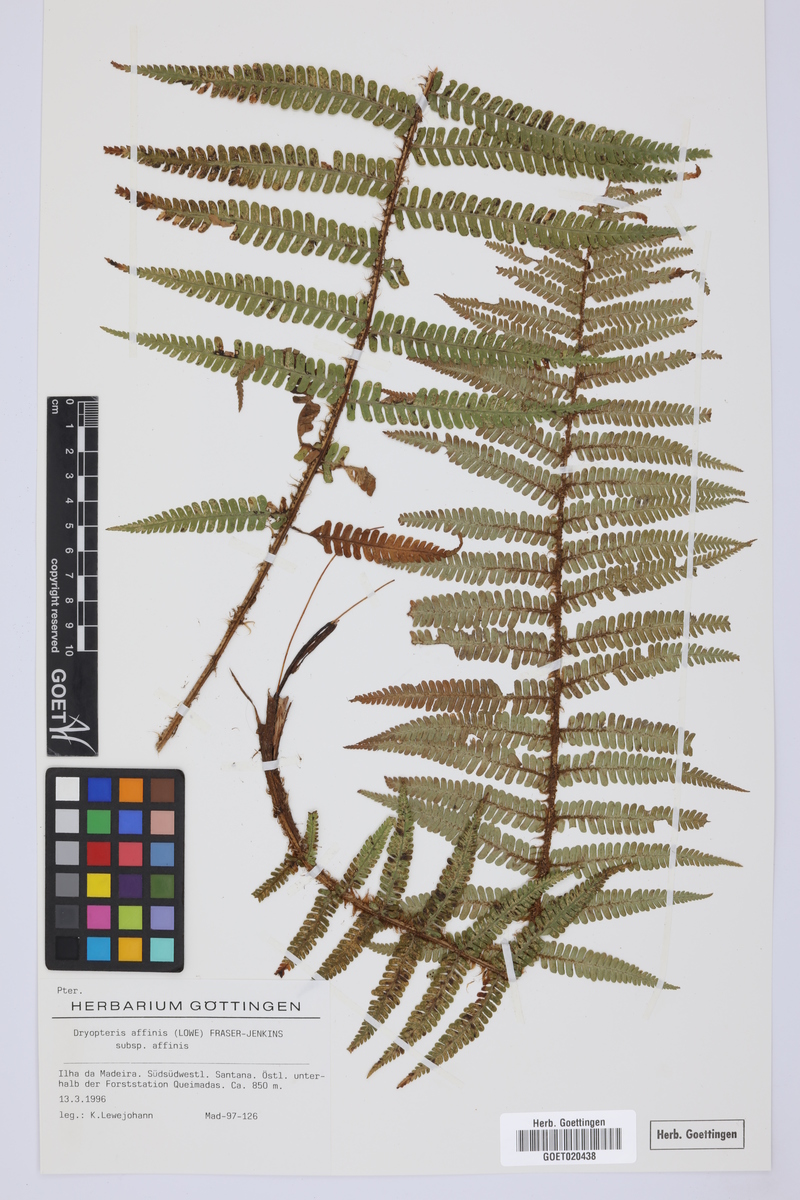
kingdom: Plantae
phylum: Tracheophyta
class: Polypodiopsida
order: Polypodiales
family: Dryopteridaceae
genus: Dryopteris
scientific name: Dryopteris affinis
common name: Scaly male fern
